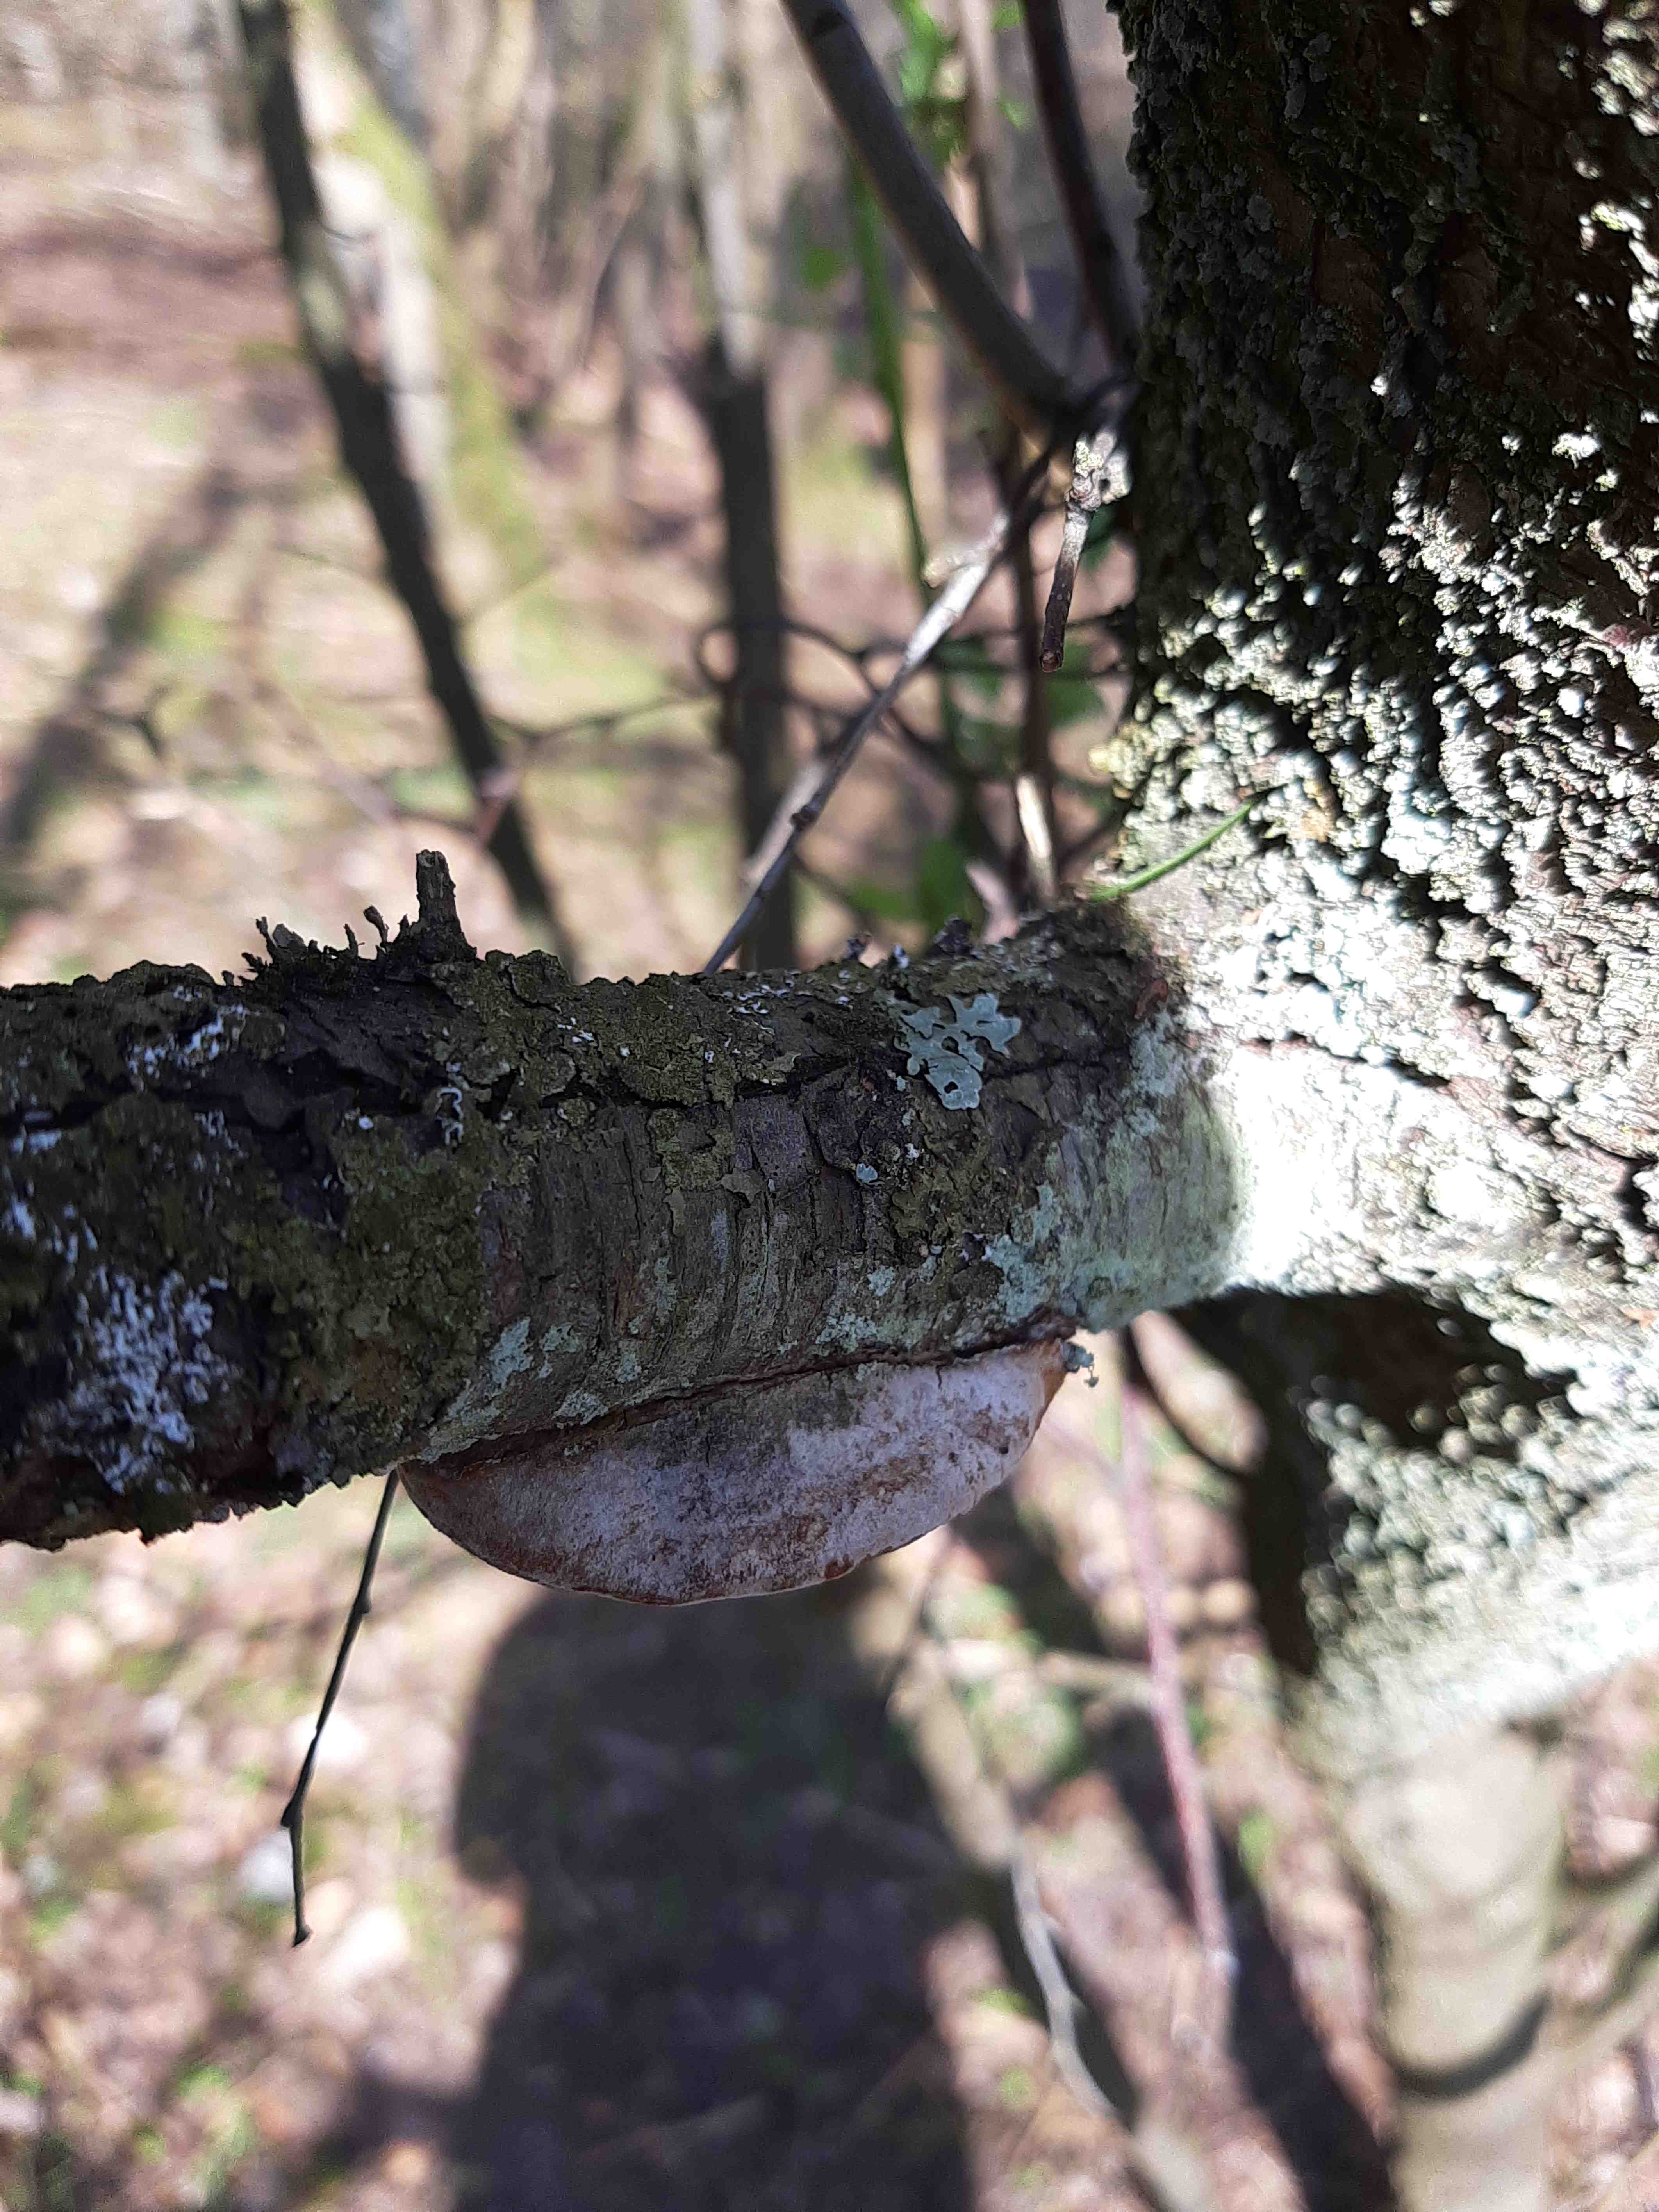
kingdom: Fungi
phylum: Basidiomycota
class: Agaricomycetes
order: Hymenochaetales
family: Hymenochaetaceae
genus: Phellinus
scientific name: Phellinus pomaceus
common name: blomme-ildporesvamp
